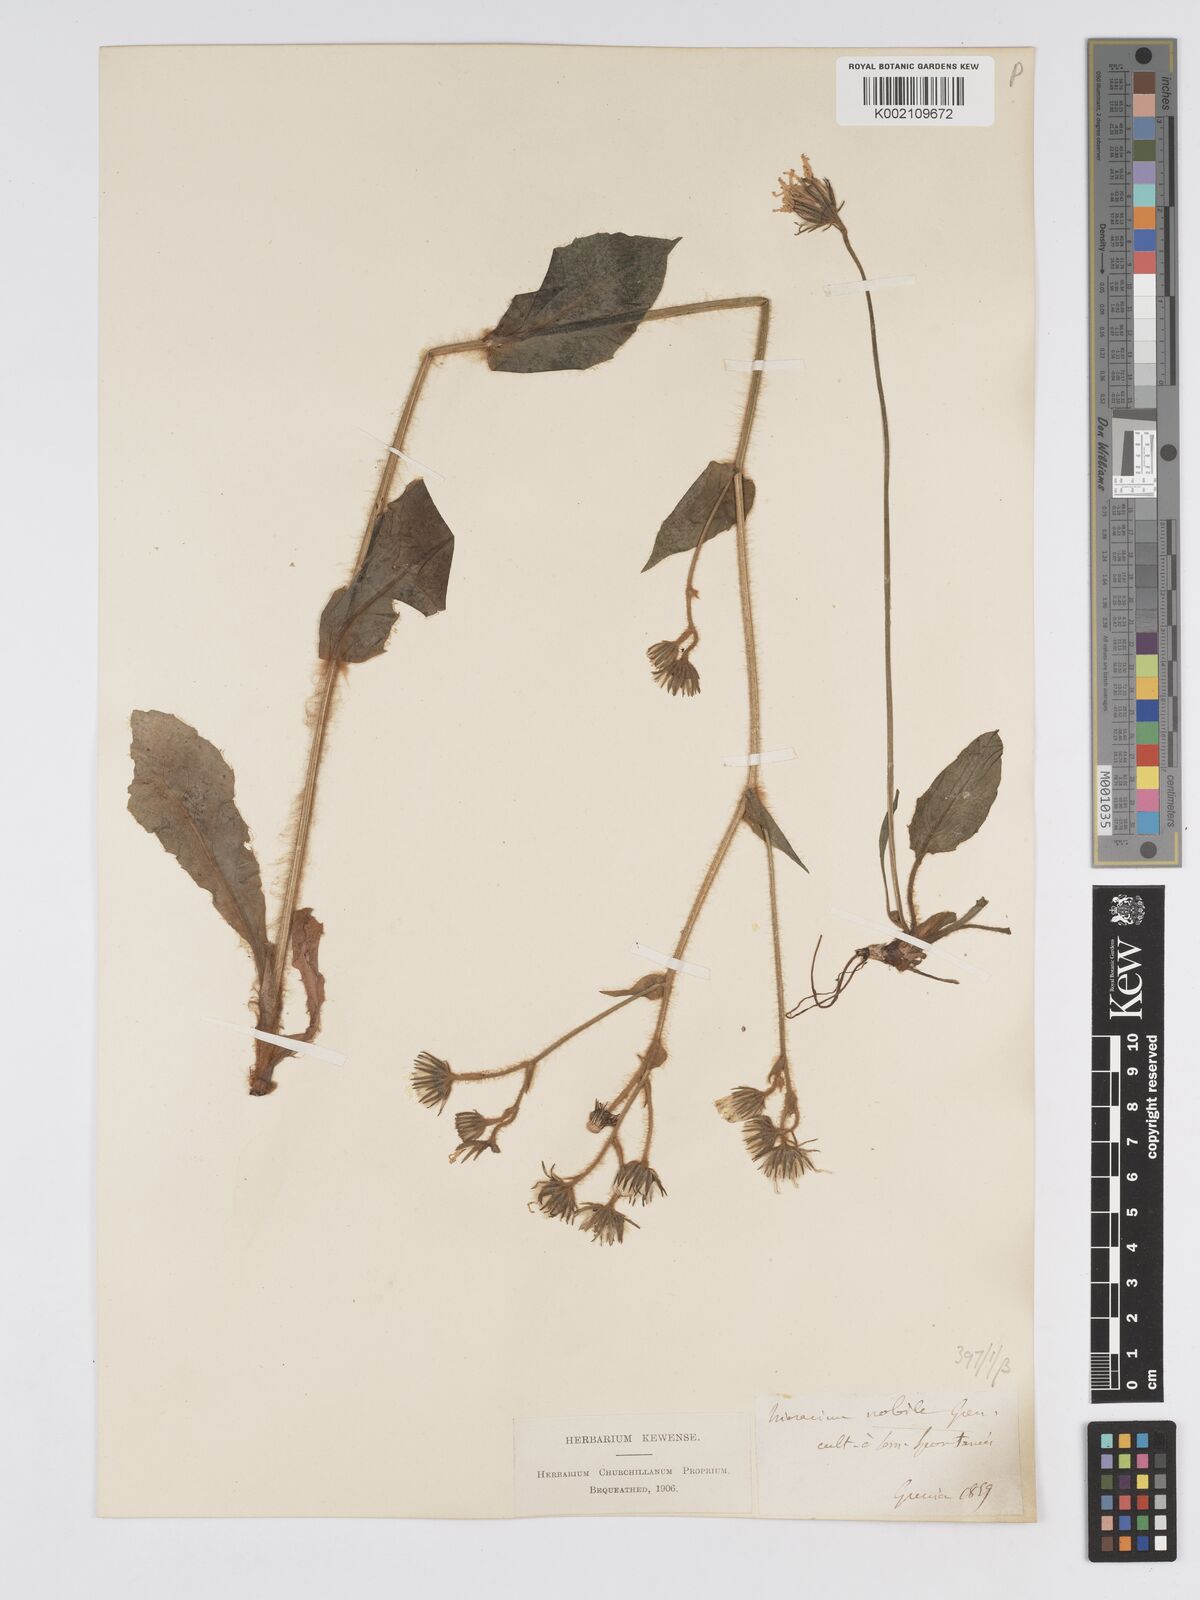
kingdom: Plantae
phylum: Tracheophyta
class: Magnoliopsida
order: Asterales
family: Asteraceae
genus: Hieracium
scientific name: Hieracium nobile
